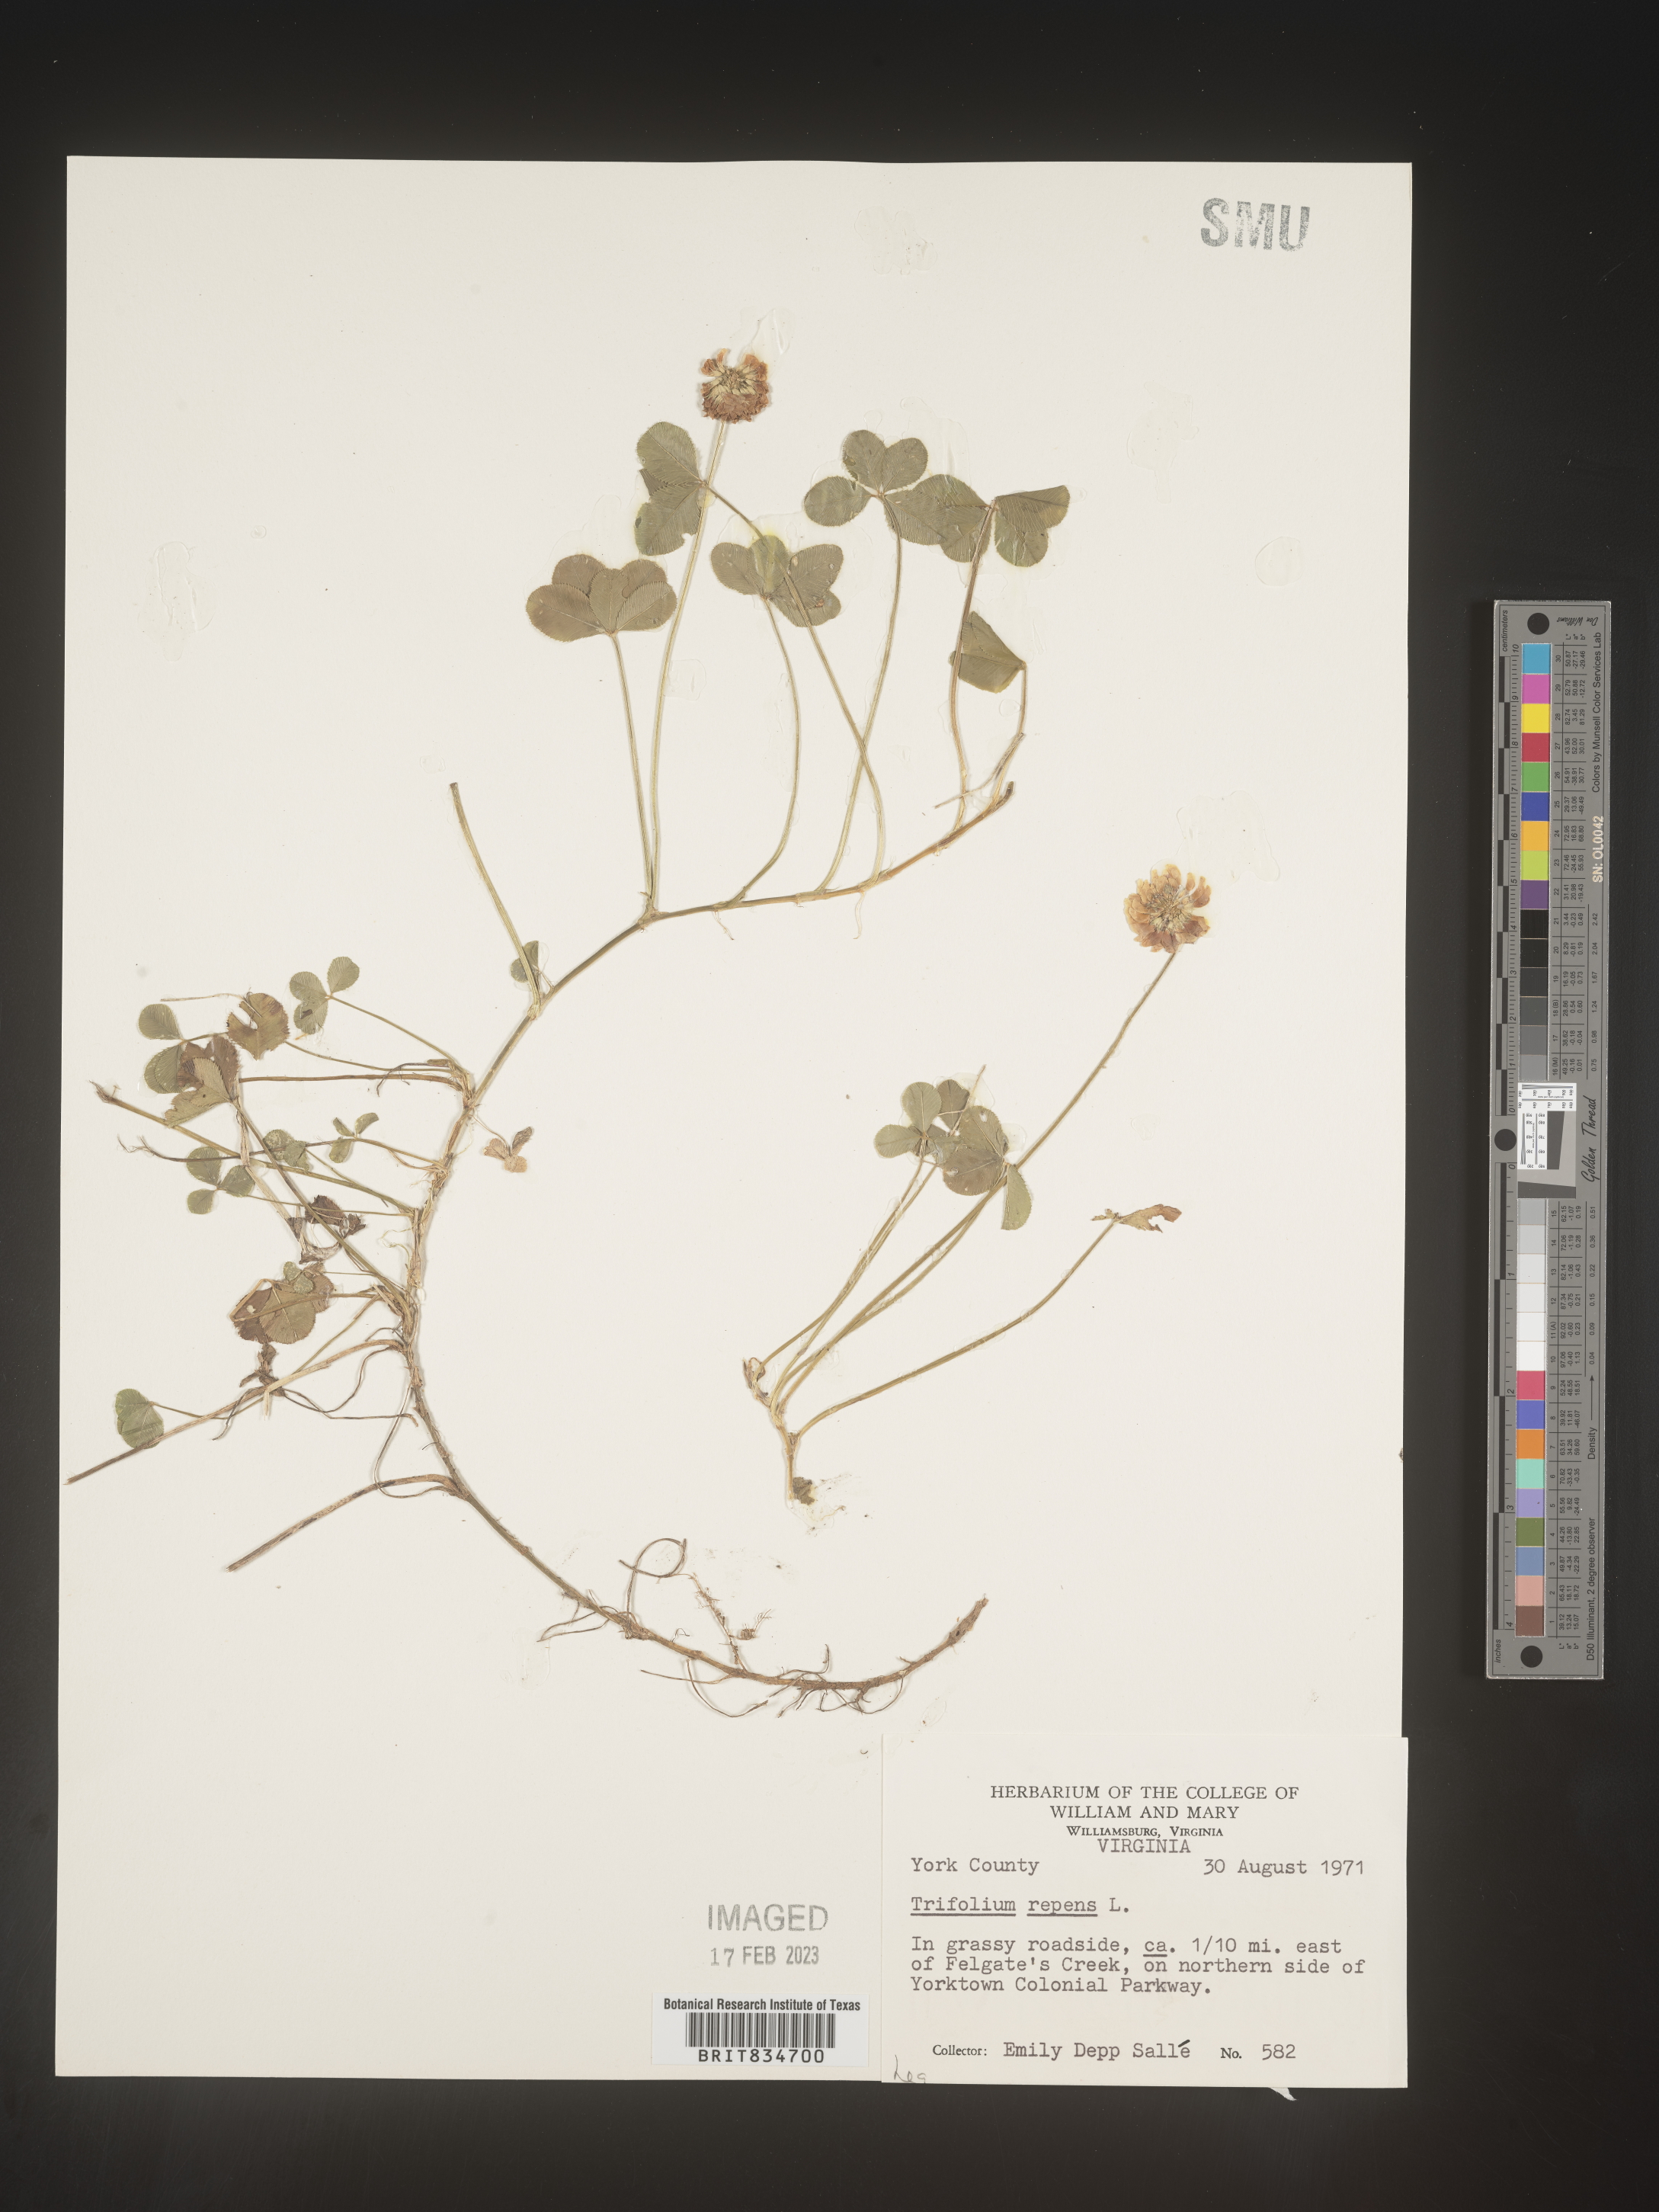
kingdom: Plantae
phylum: Tracheophyta
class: Magnoliopsida
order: Fabales
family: Fabaceae
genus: Trifolium
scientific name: Trifolium repens
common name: White clover
